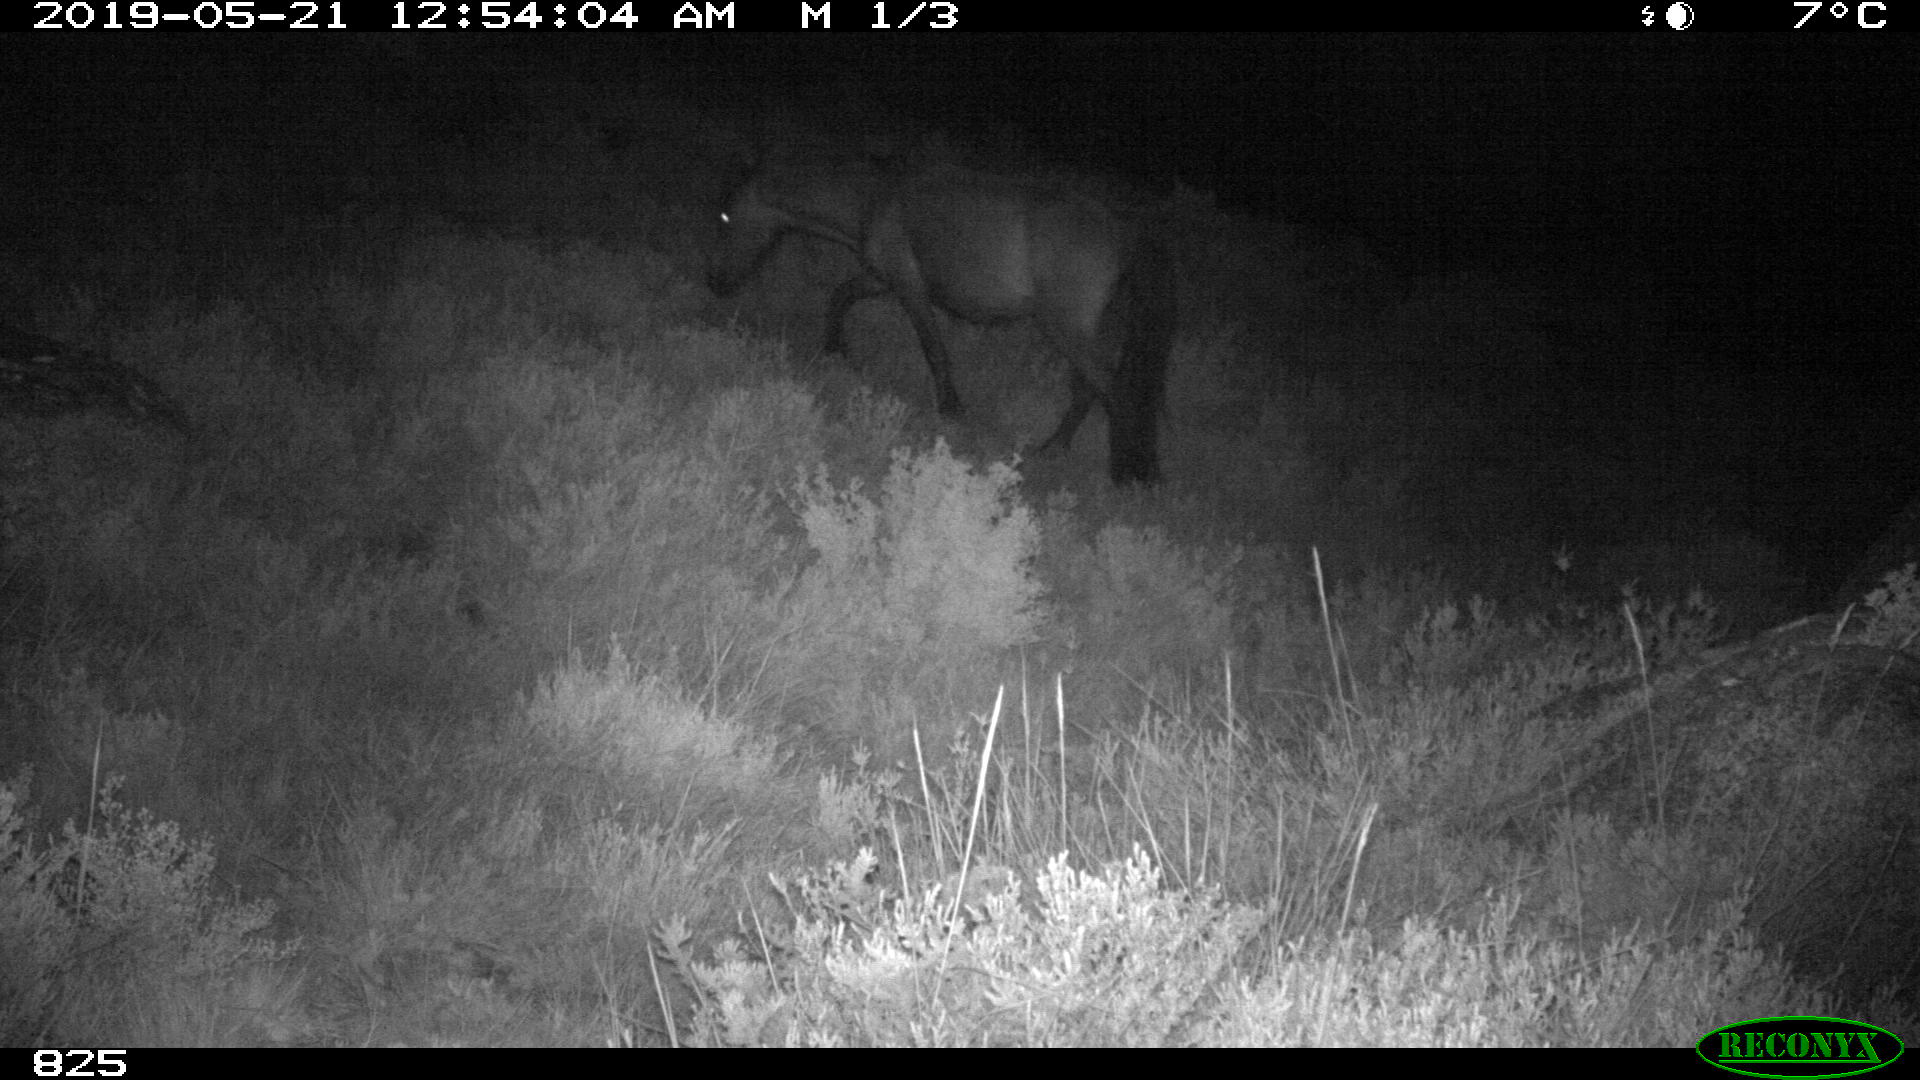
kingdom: Animalia
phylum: Chordata
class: Mammalia
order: Perissodactyla
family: Equidae
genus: Equus
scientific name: Equus caballus
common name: Horse
